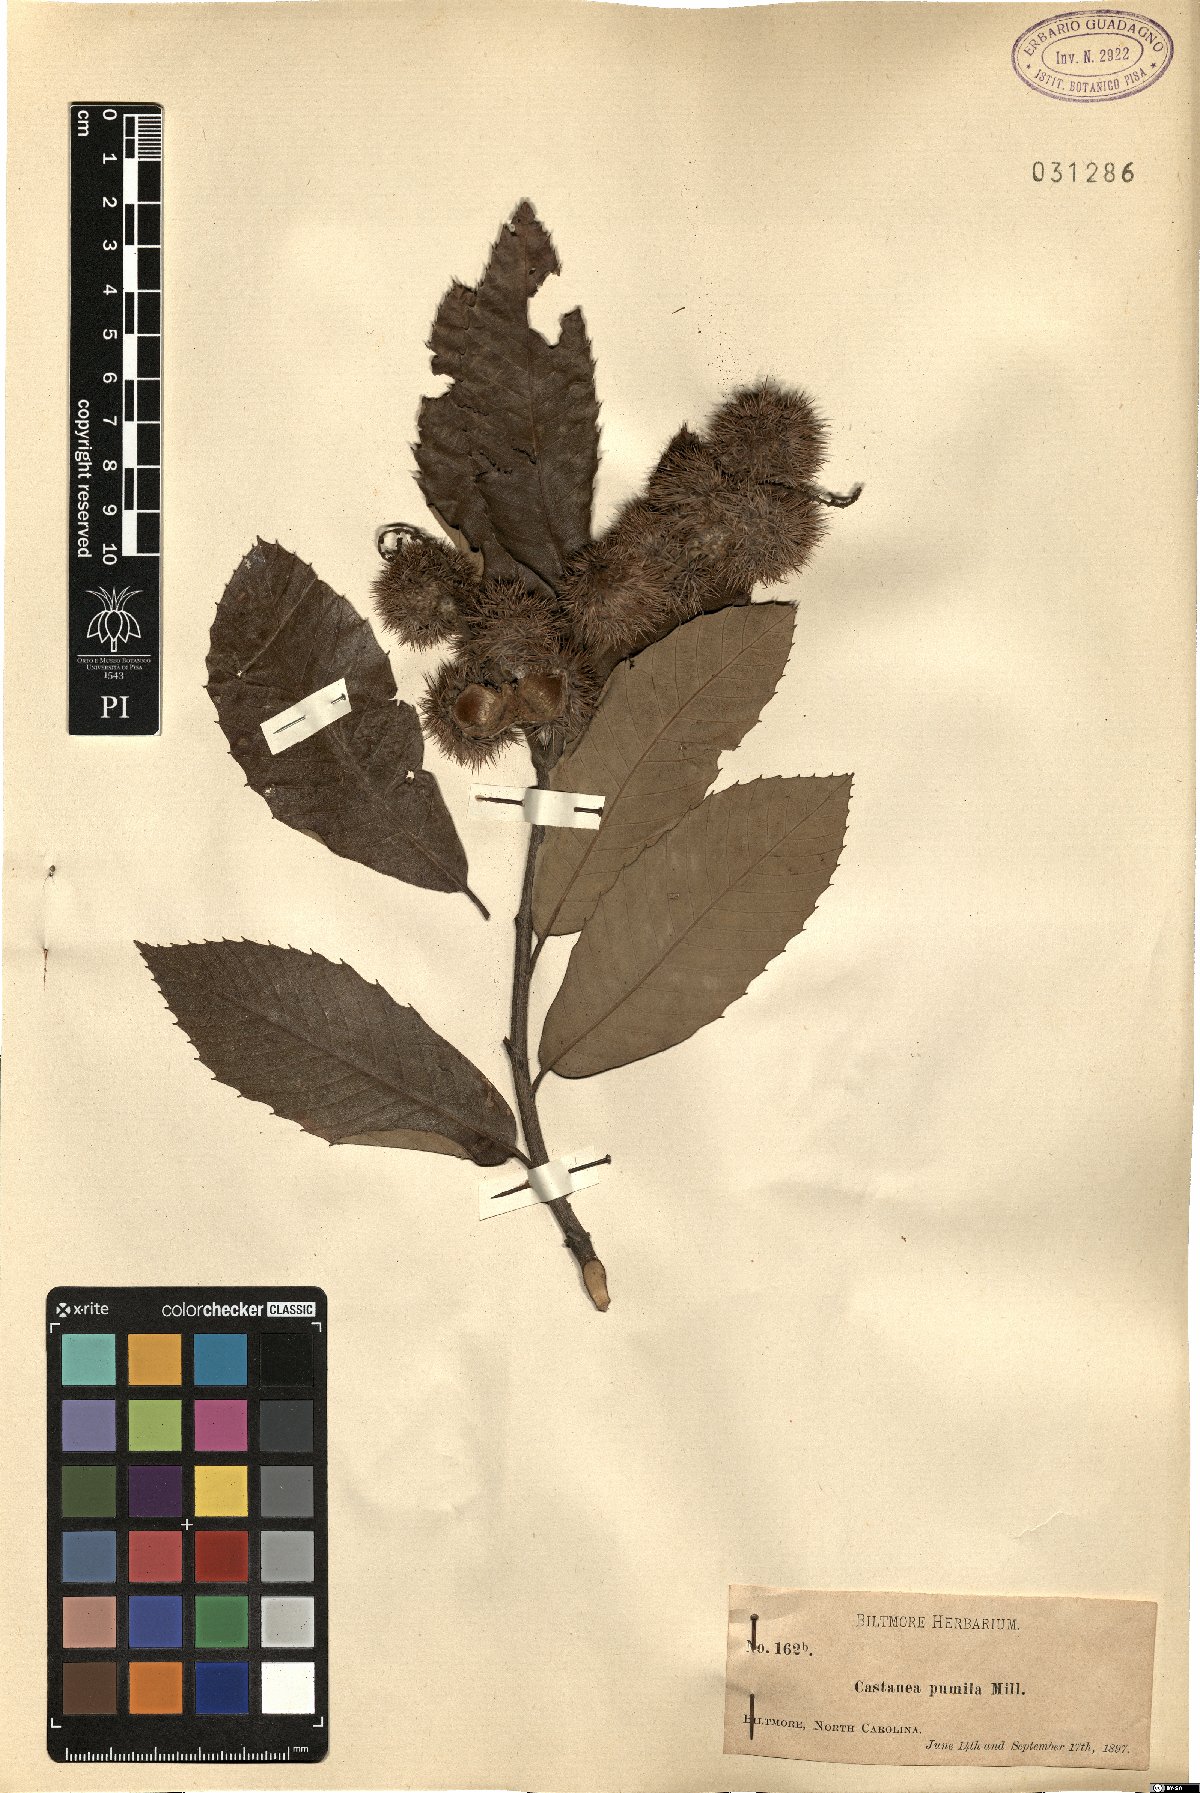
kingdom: Plantae
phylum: Tracheophyta
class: Magnoliopsida
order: Fagales
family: Fagaceae
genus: Castanea
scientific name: Castanea pumila
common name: Chinkapin
